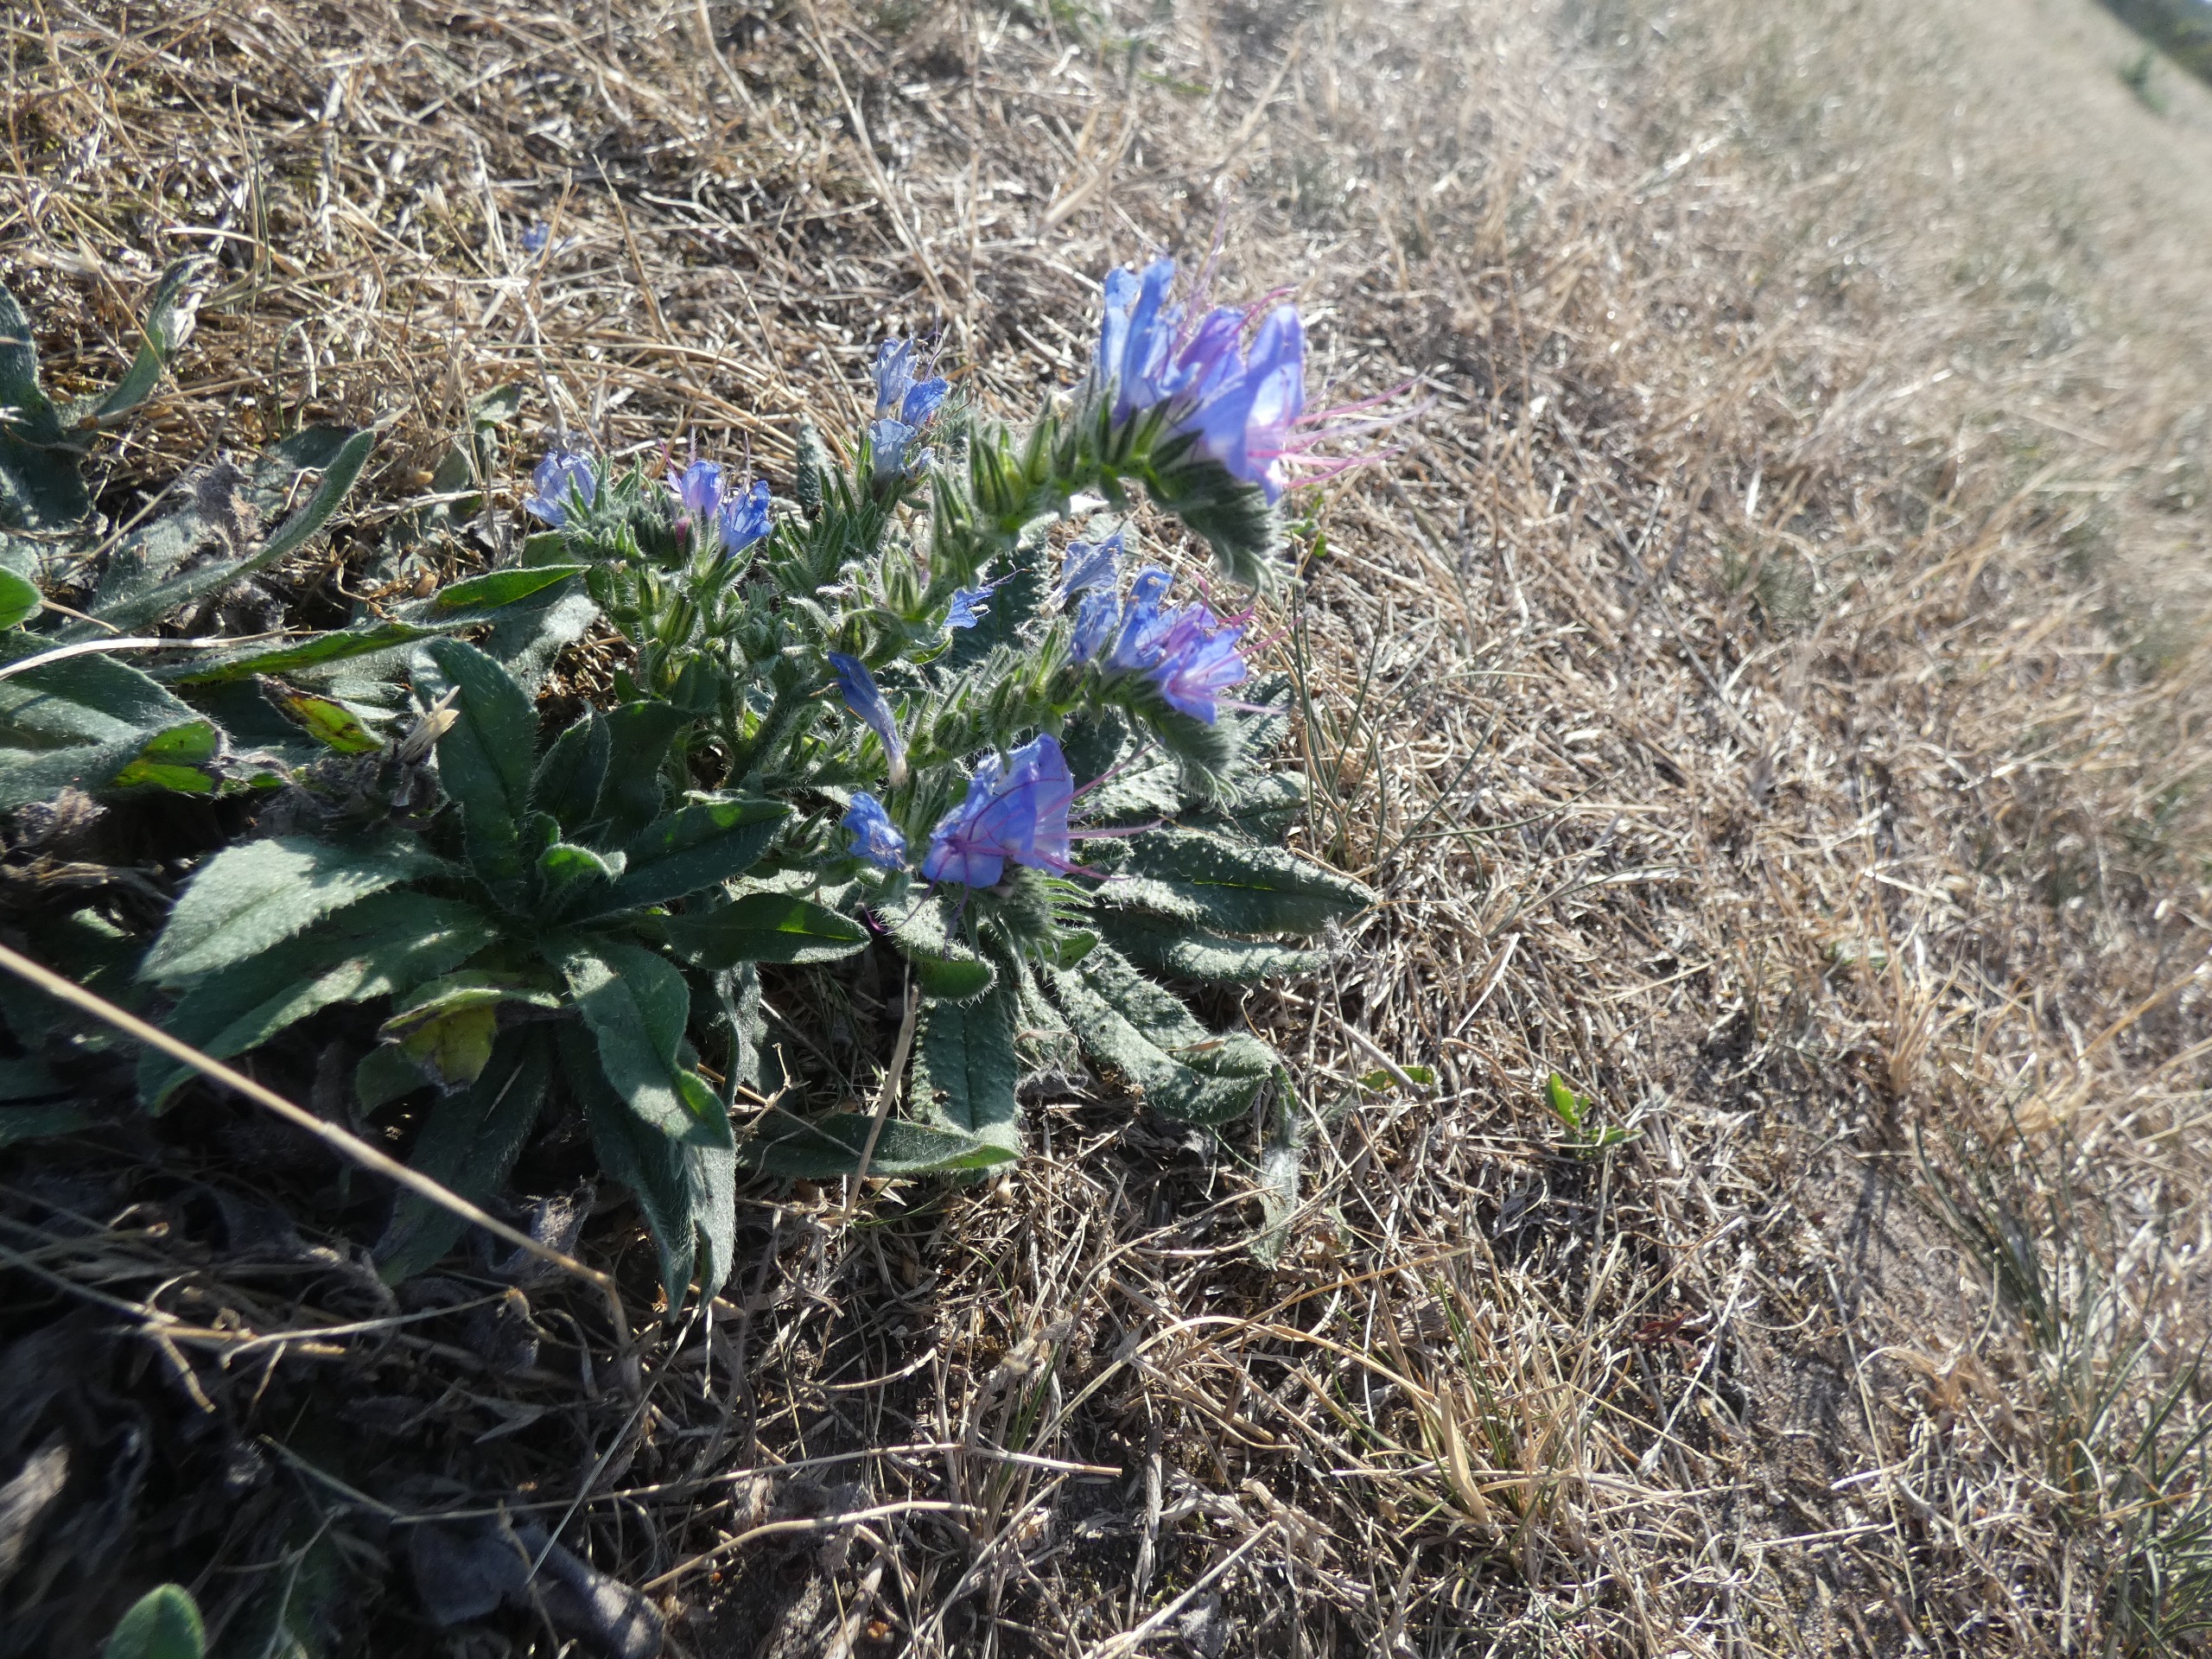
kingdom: Plantae
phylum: Tracheophyta
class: Magnoliopsida
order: Boraginales
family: Boraginaceae
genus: Echium
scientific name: Echium vulgare
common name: Slangehoved
